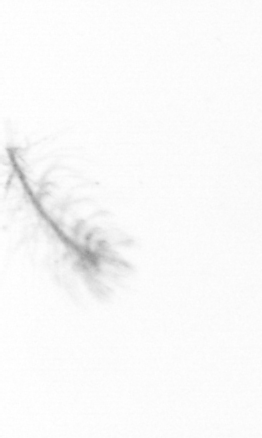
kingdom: Chromista
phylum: Ochrophyta
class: Bacillariophyceae
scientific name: Bacillariophyceae
